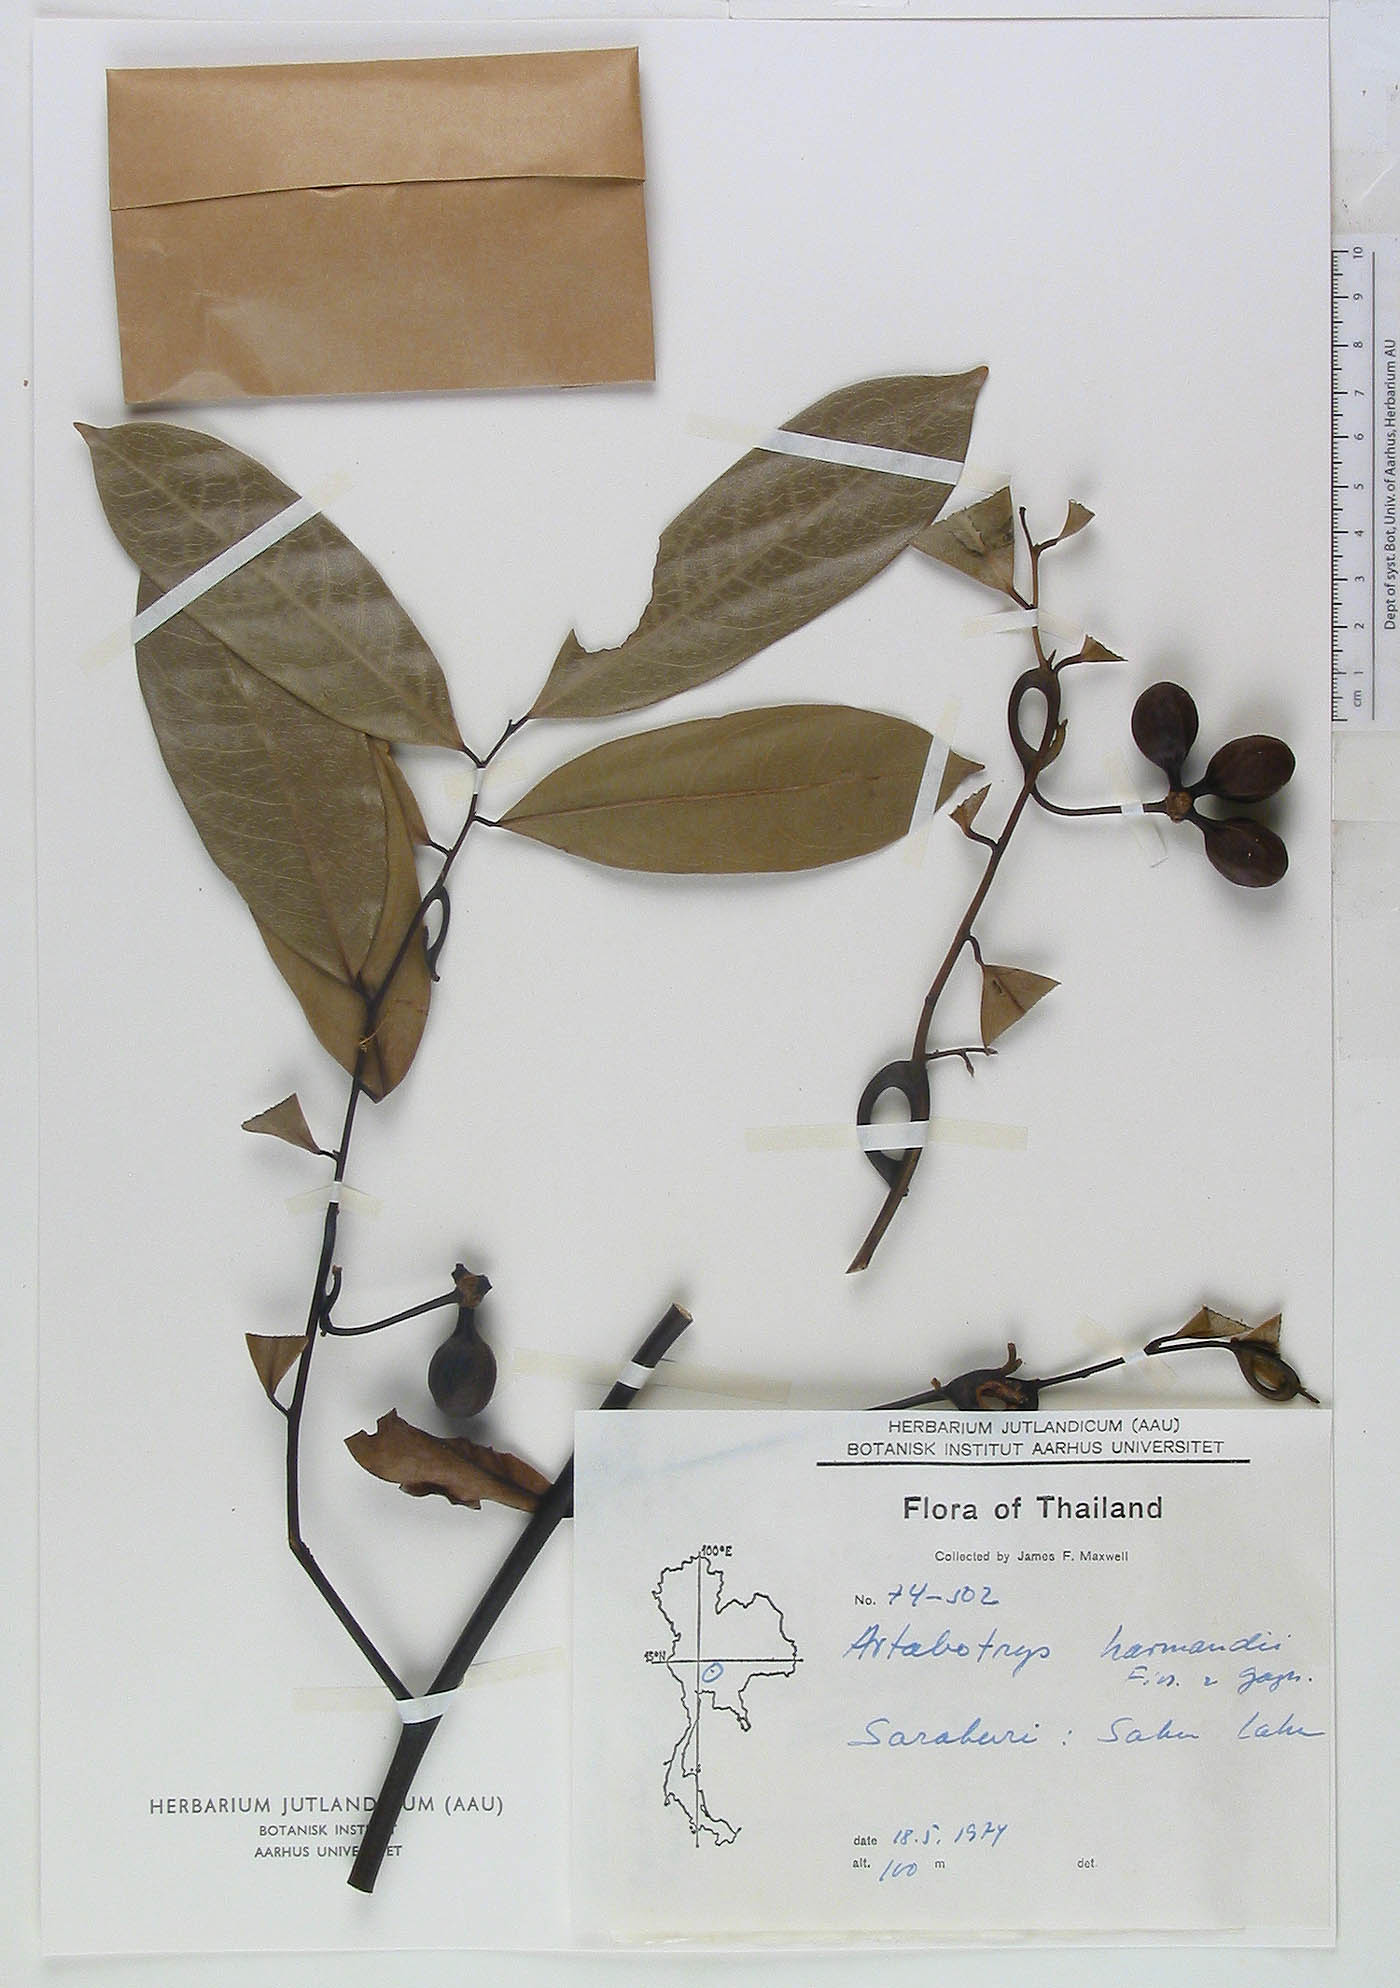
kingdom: Plantae
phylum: Tracheophyta
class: Magnoliopsida
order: Magnoliales
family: Annonaceae
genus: Artabotrys
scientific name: Artabotrys harmandii
